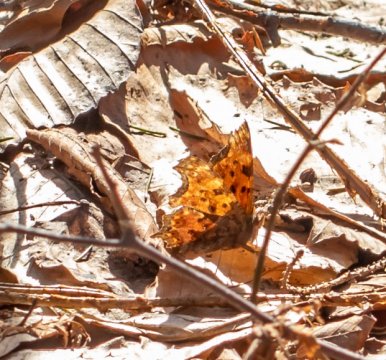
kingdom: Animalia
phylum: Arthropoda
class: Insecta
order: Lepidoptera
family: Nymphalidae
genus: Polygonia
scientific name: Polygonia comma
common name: Eastern Comma
